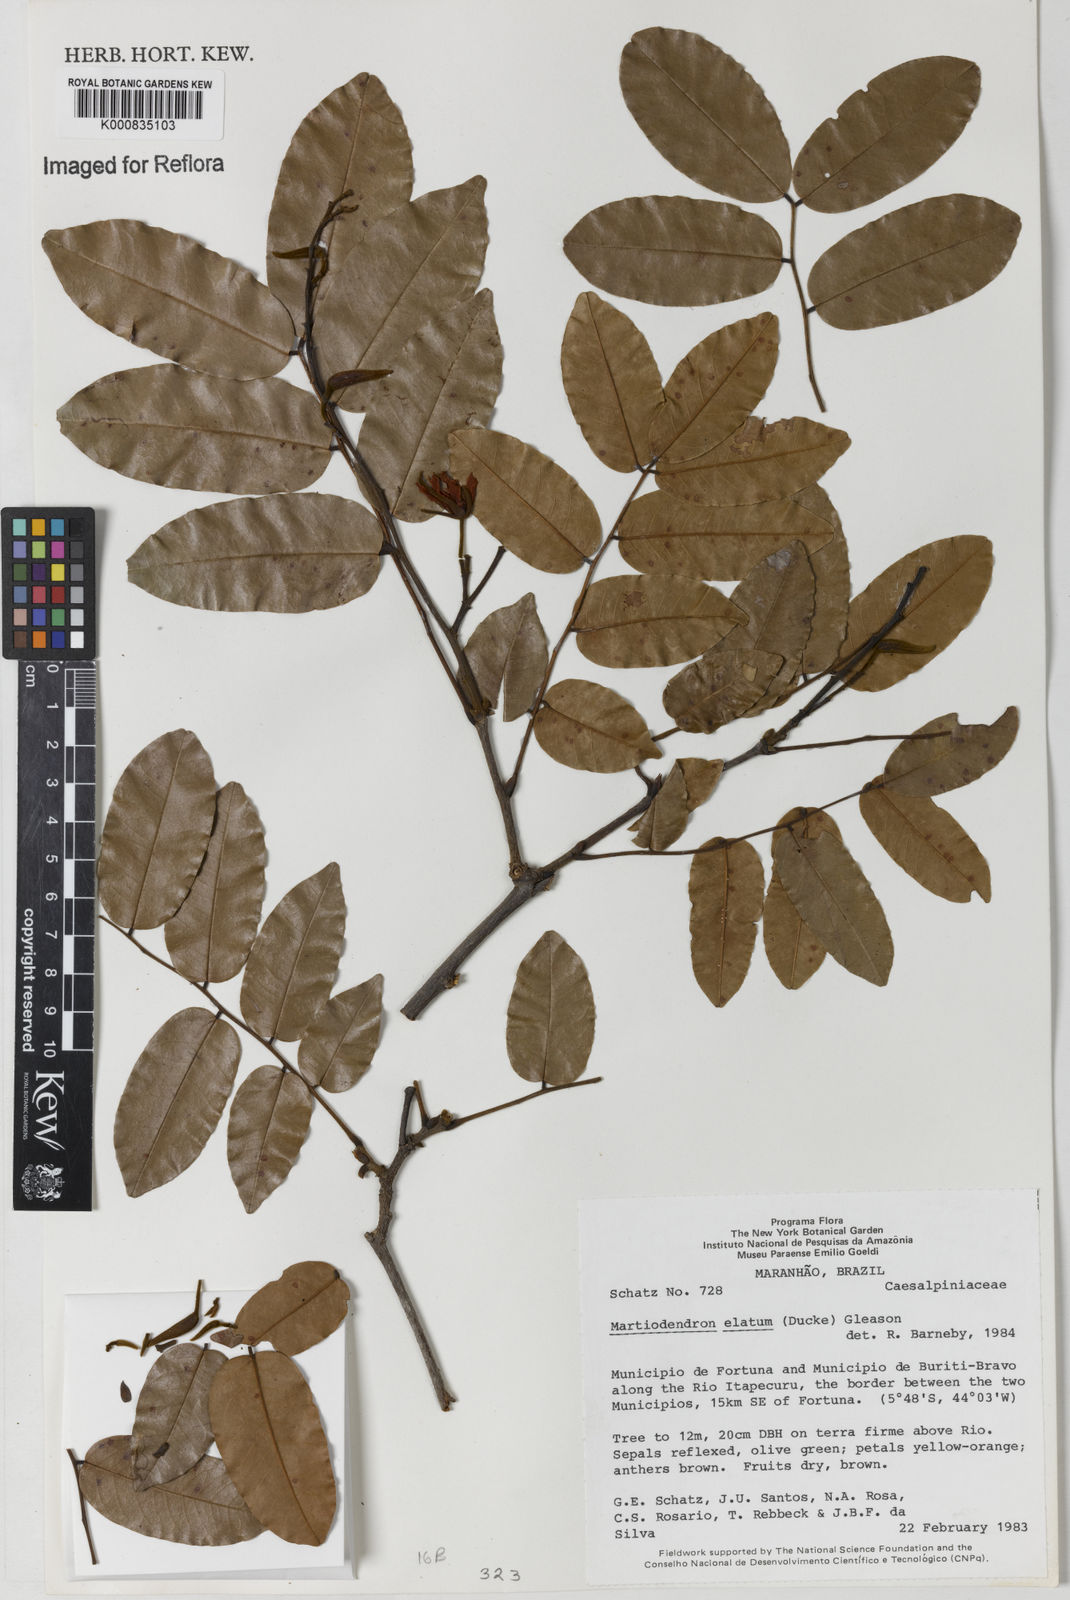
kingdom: Plantae
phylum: Tracheophyta
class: Magnoliopsida
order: Fabales
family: Fabaceae
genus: Martiodendron
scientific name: Martiodendron elatum
